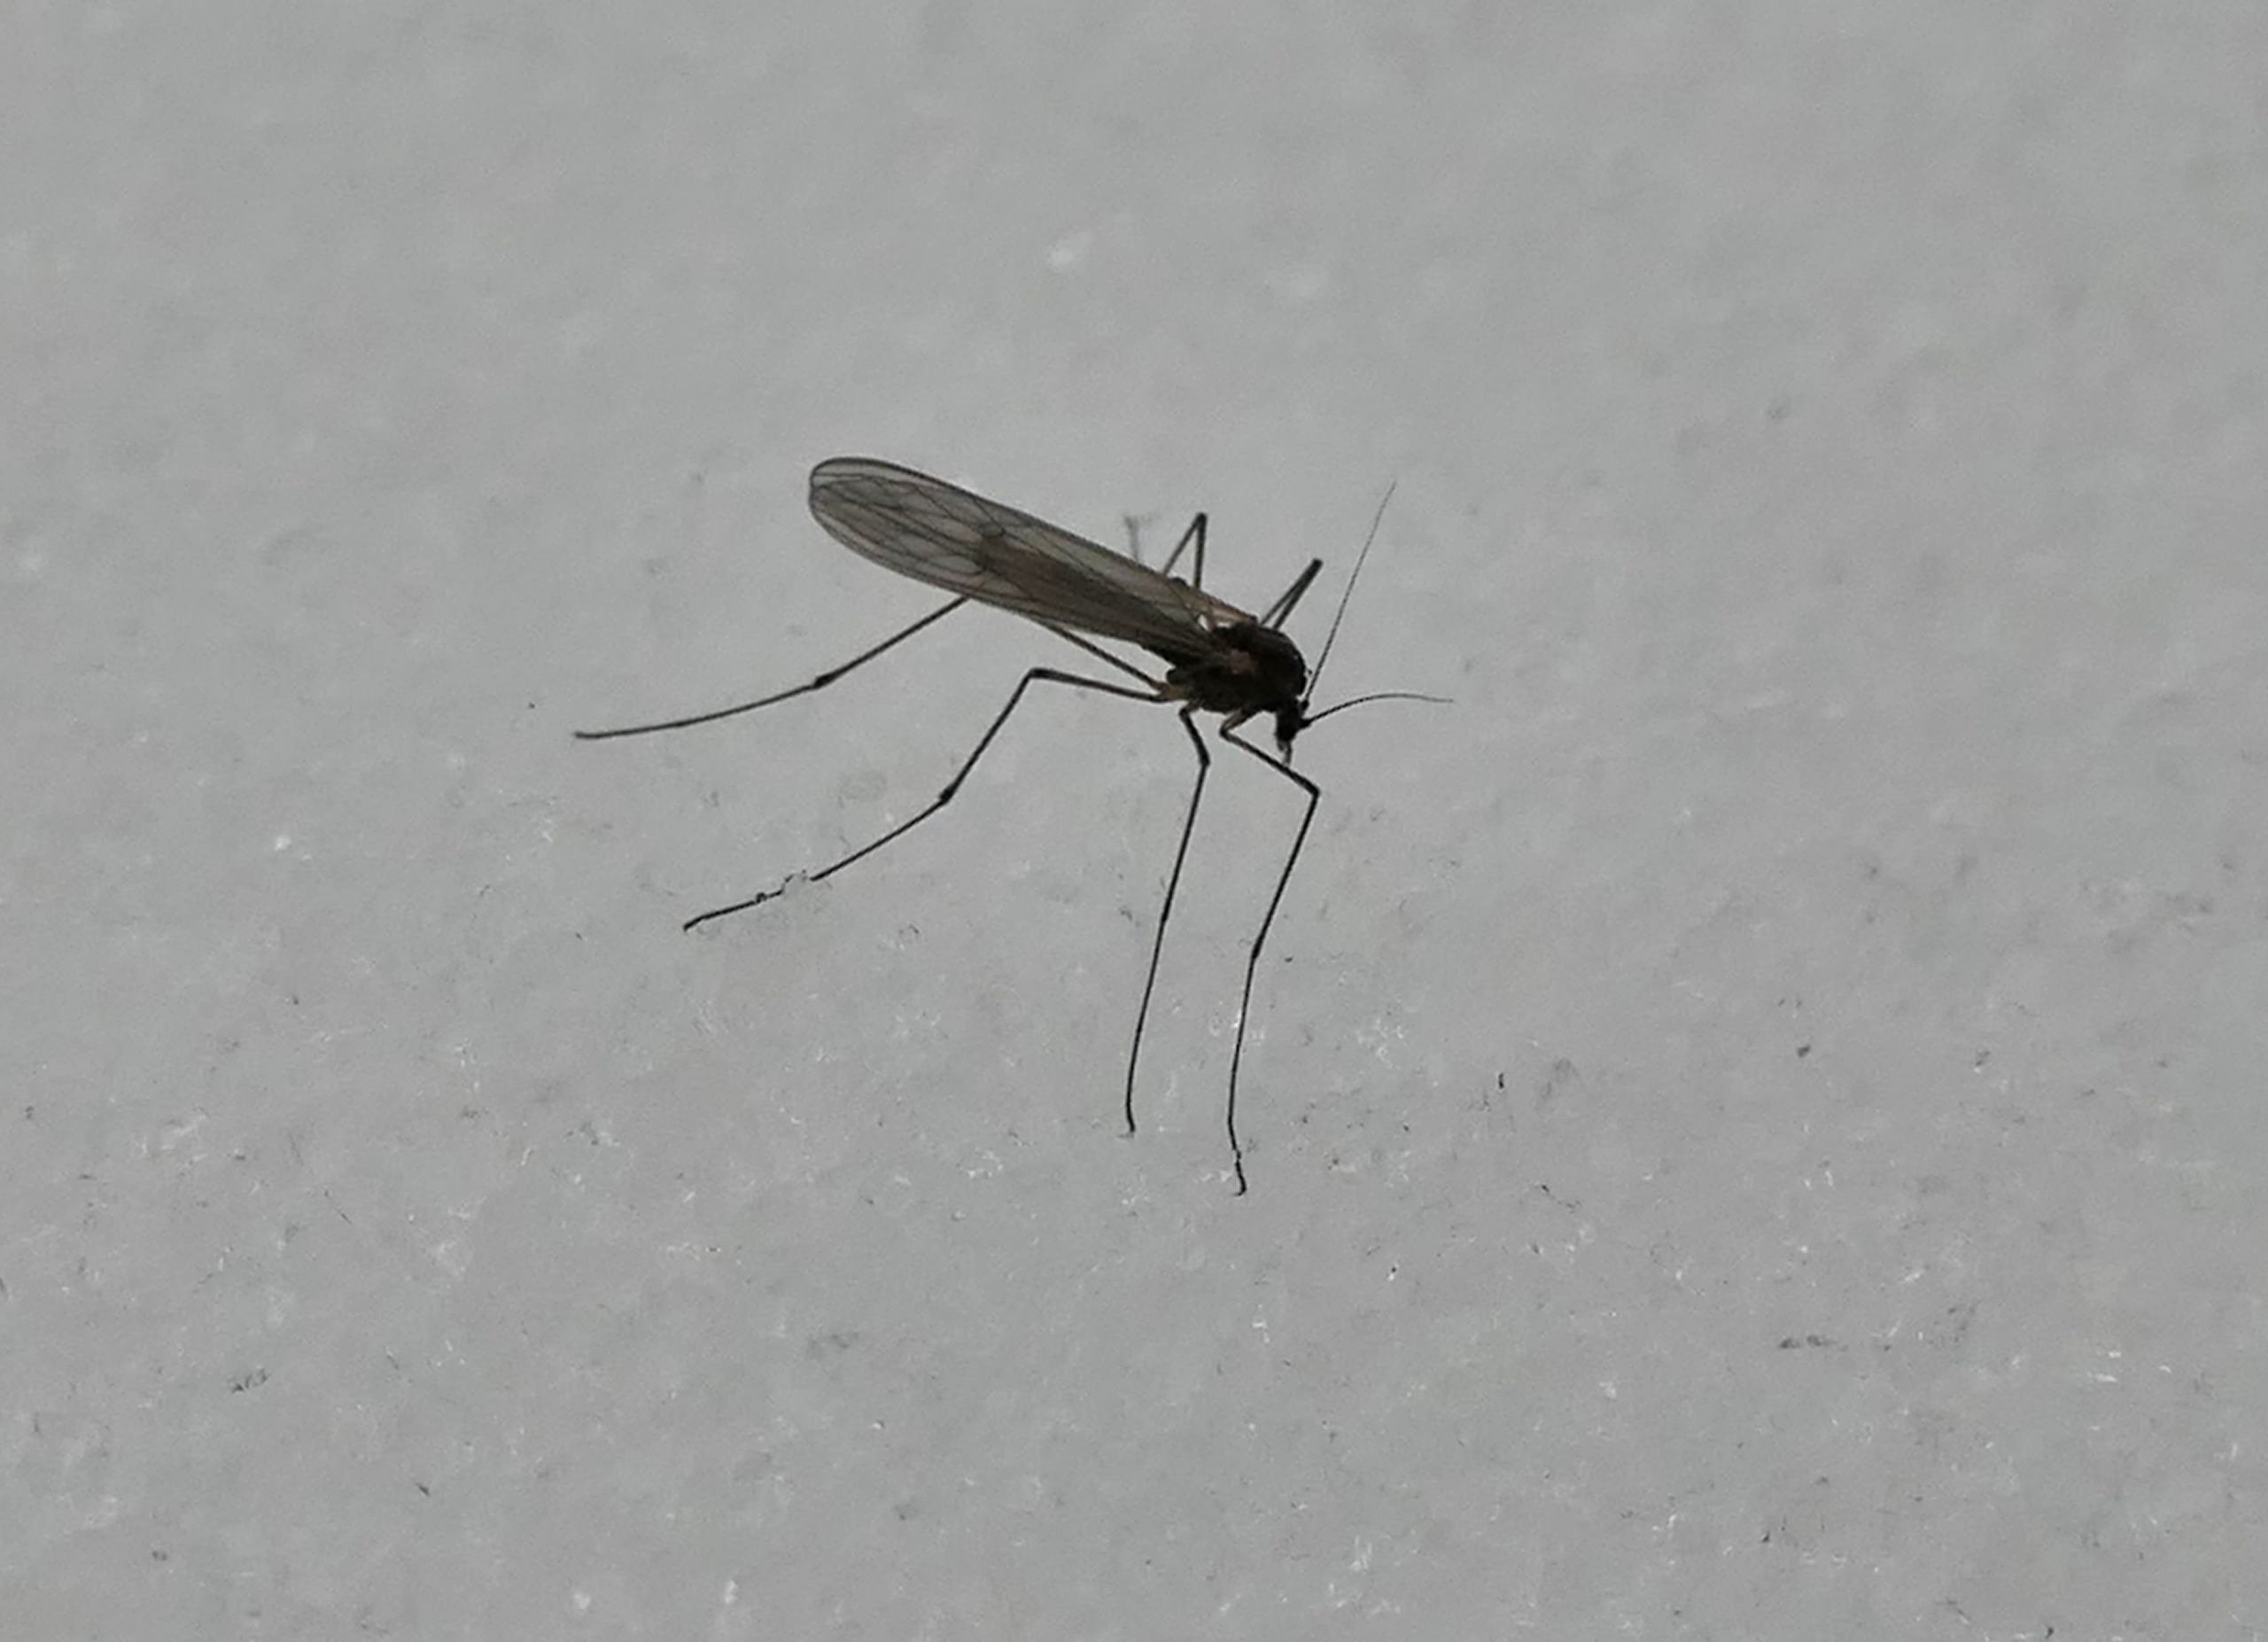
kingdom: Animalia
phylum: Arthropoda
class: Insecta
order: Diptera
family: Trichoceridae
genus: Trichocera
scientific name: Trichocera
